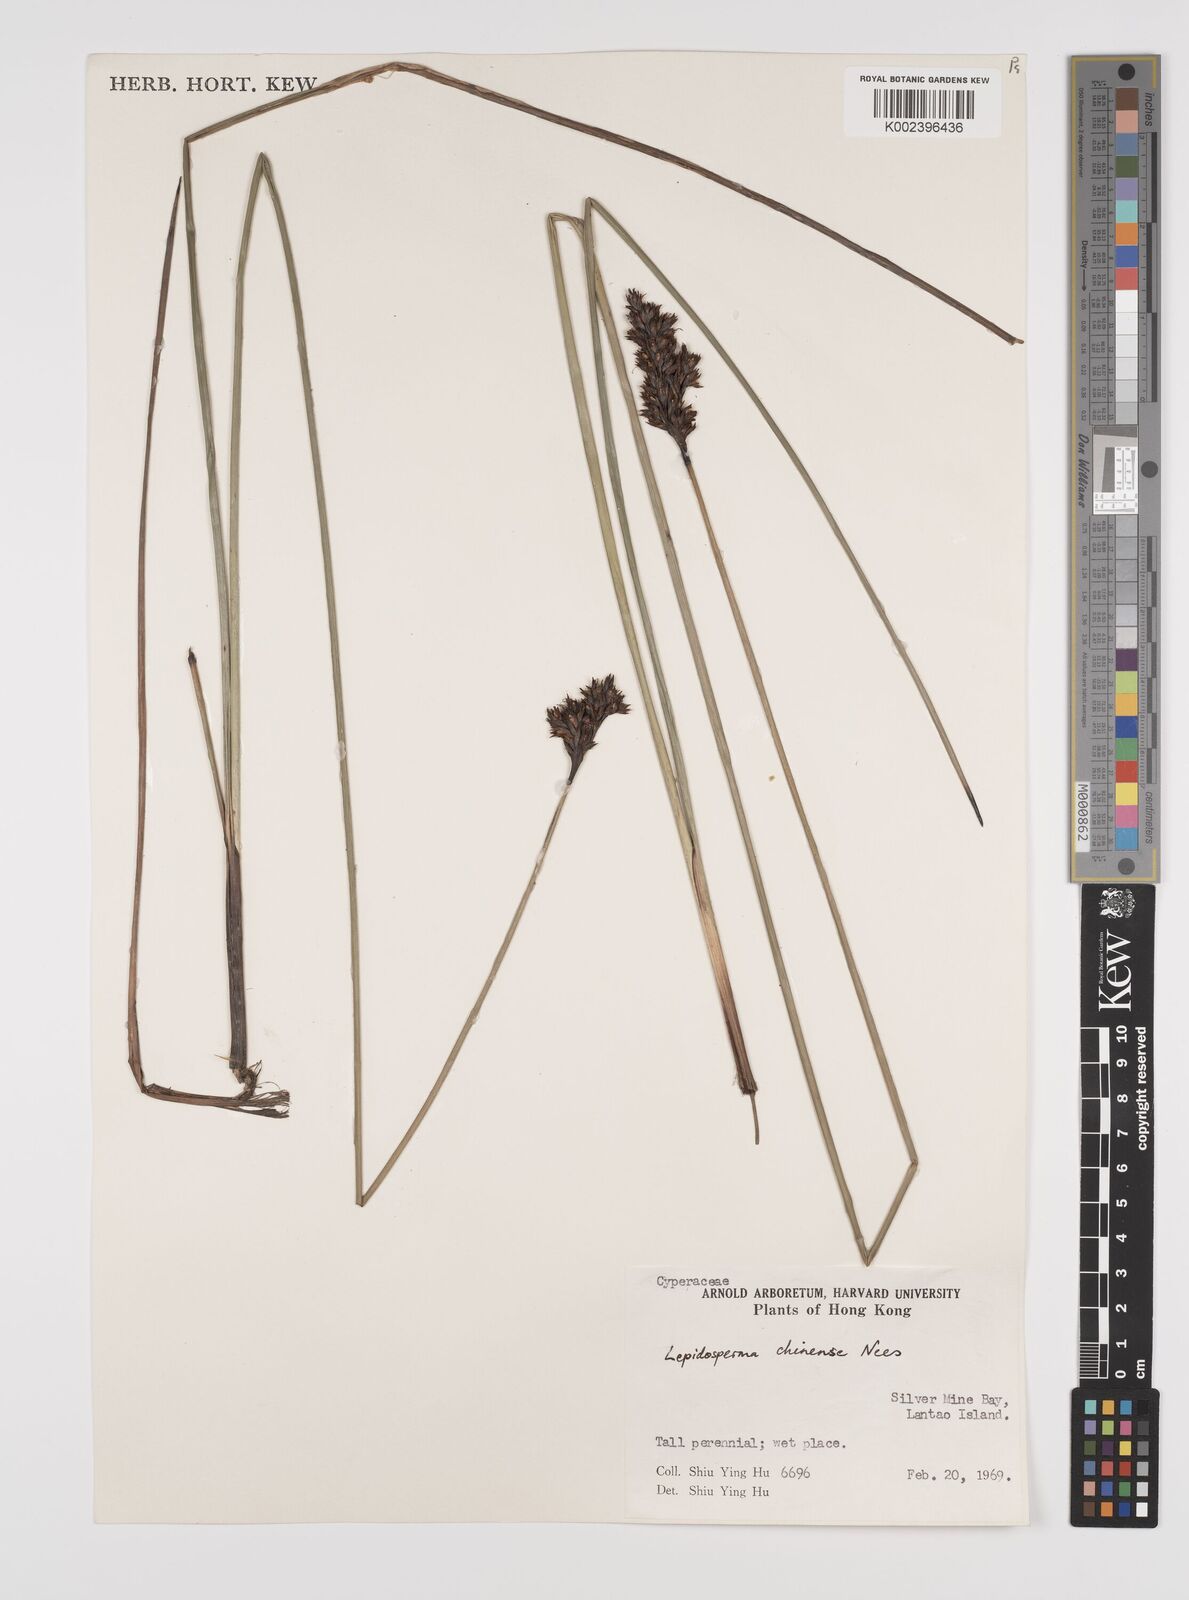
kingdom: Plantae
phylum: Tracheophyta
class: Liliopsida
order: Poales
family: Cyperaceae
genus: Lepidosperma
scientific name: Lepidosperma chinense
